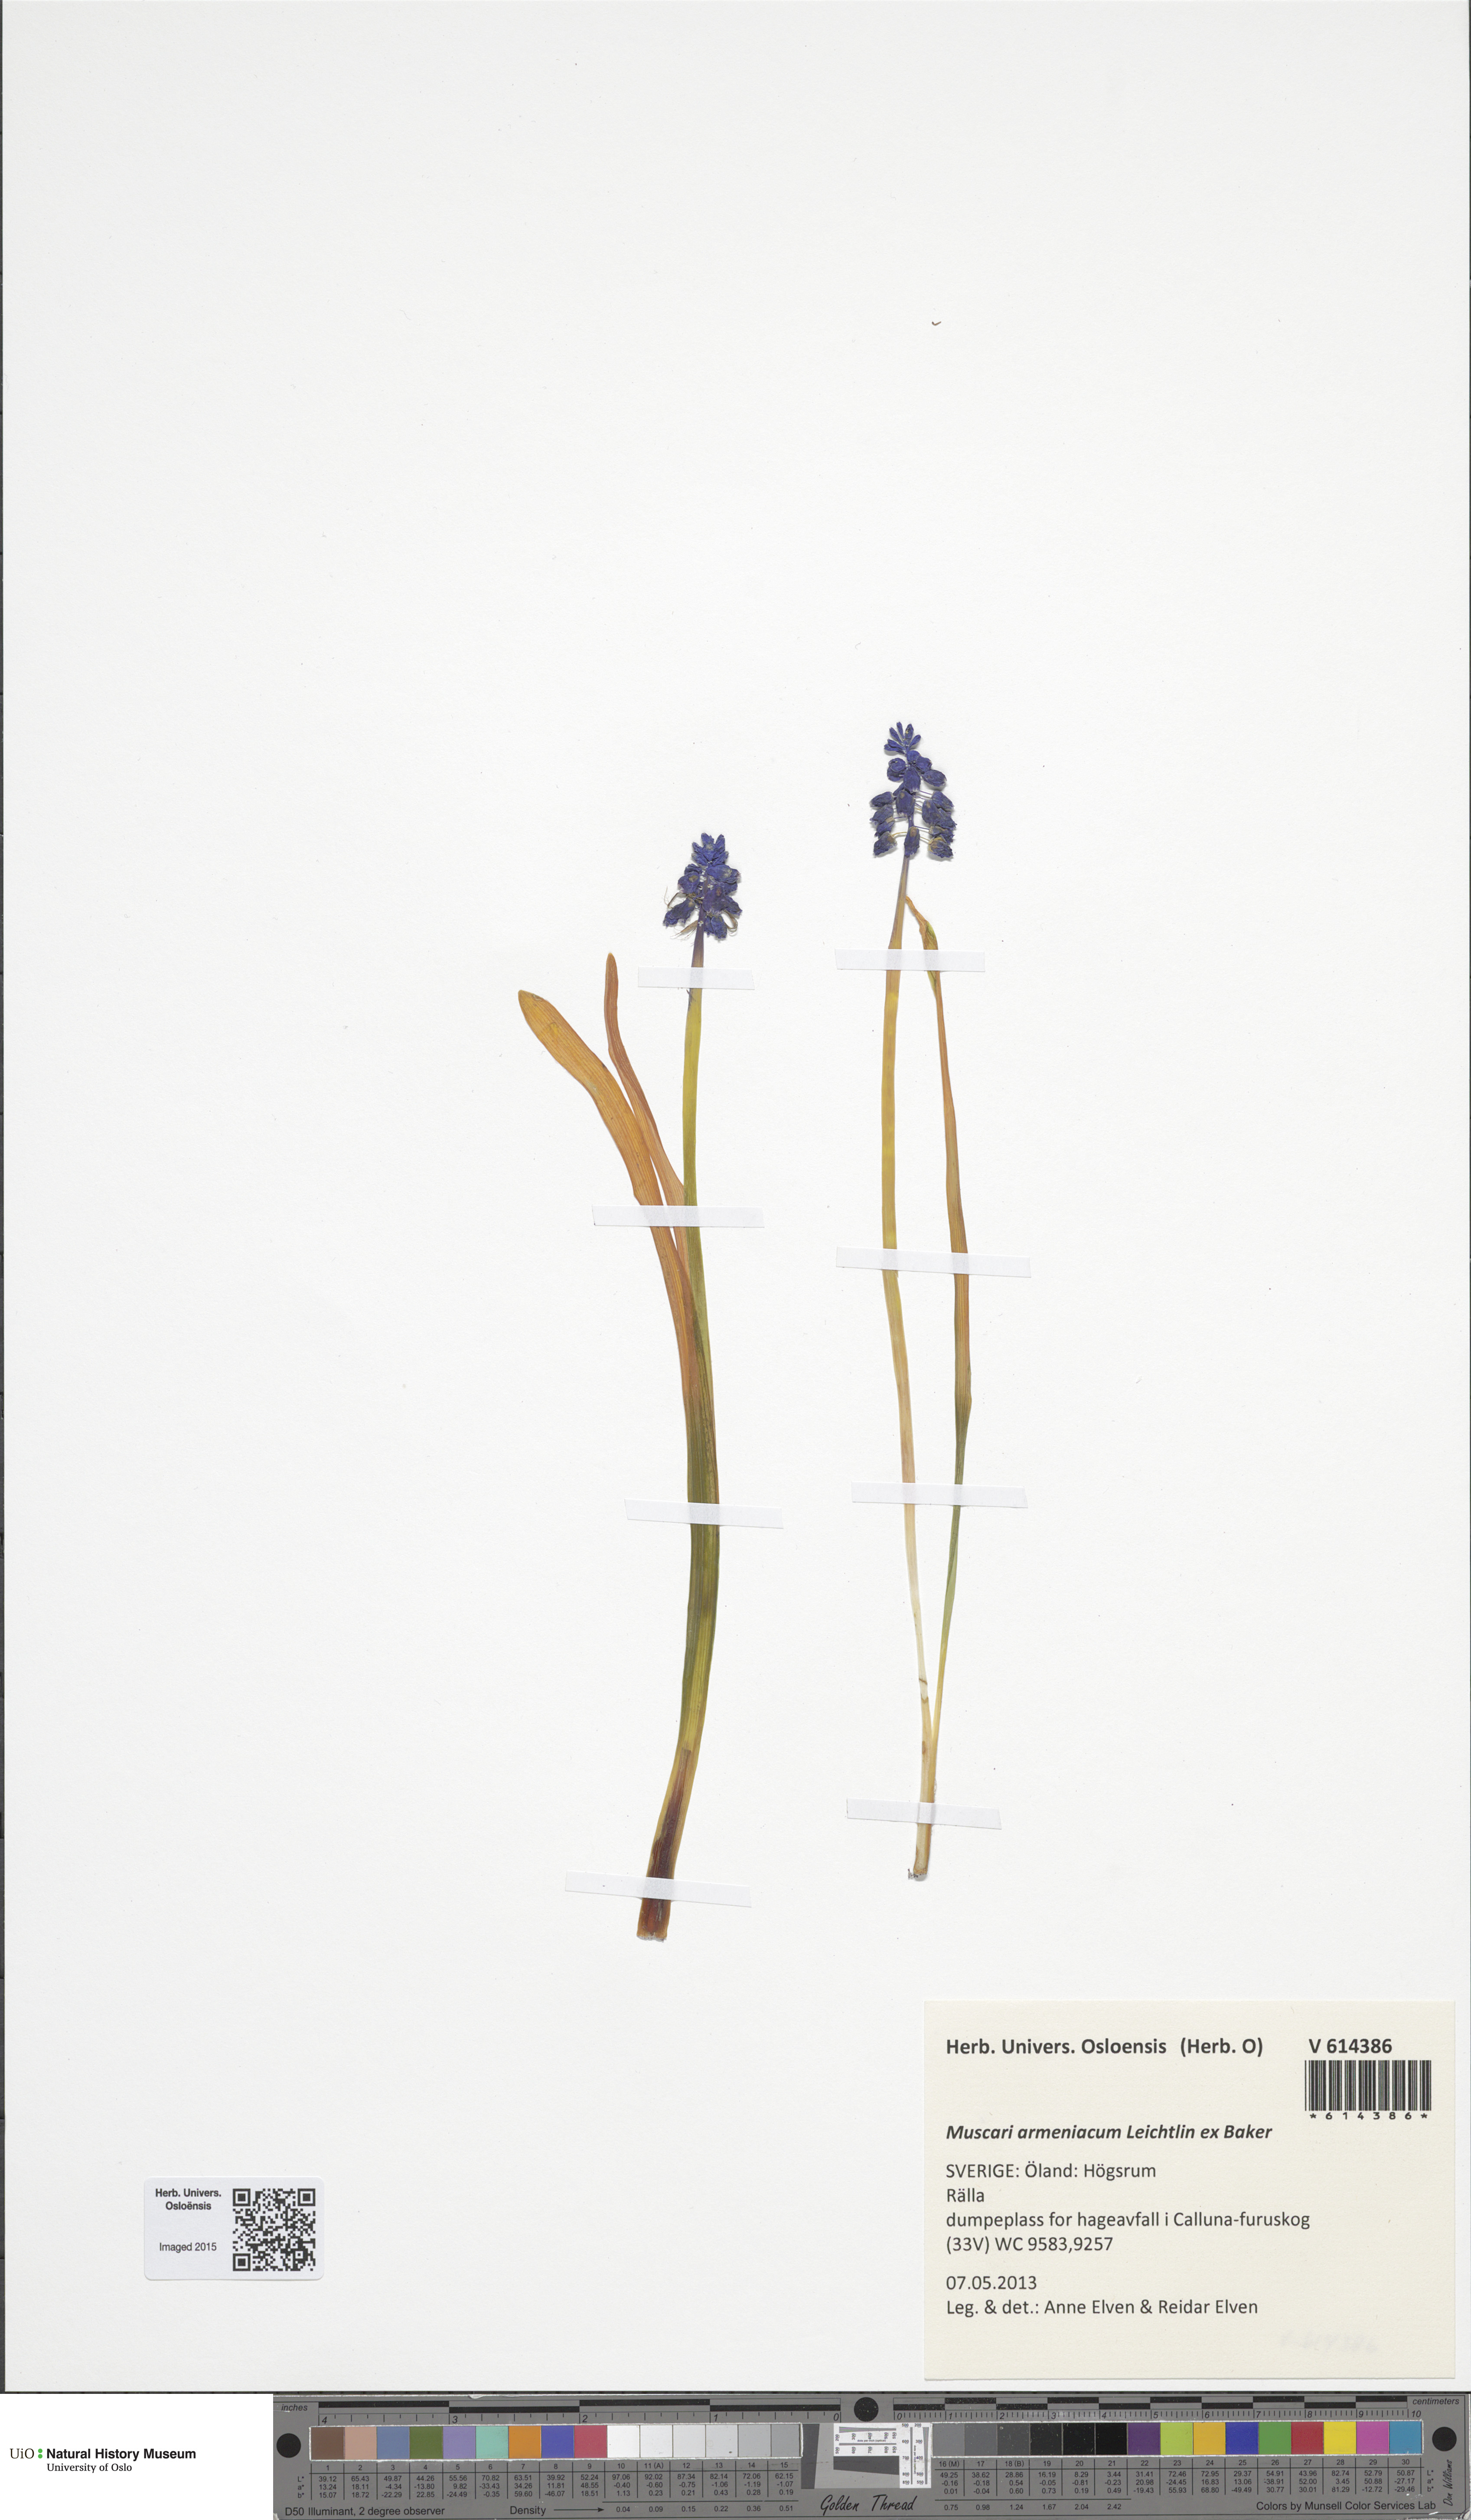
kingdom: Plantae
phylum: Tracheophyta
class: Liliopsida
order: Asparagales
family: Asparagaceae
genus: Muscari
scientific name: Muscari armeniacum
